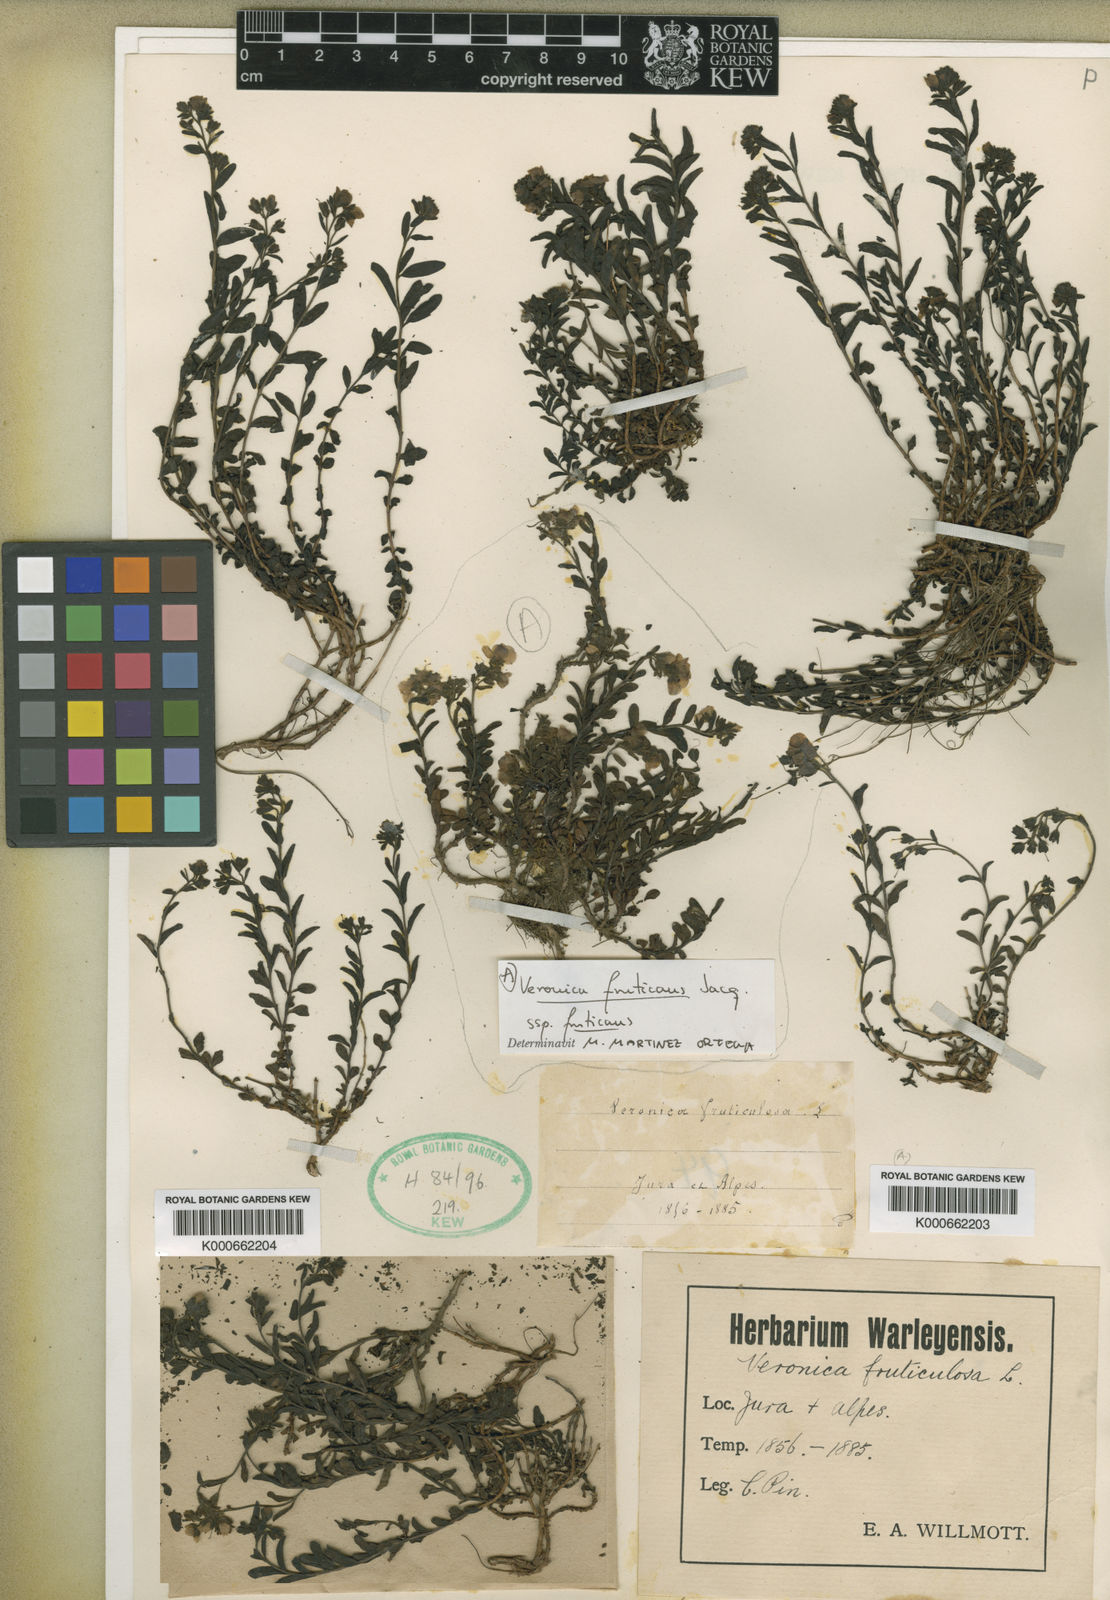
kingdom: Plantae
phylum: Tracheophyta
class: Magnoliopsida
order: Lamiales
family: Plantaginaceae
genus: Veronica
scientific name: Veronica fruticulosa
